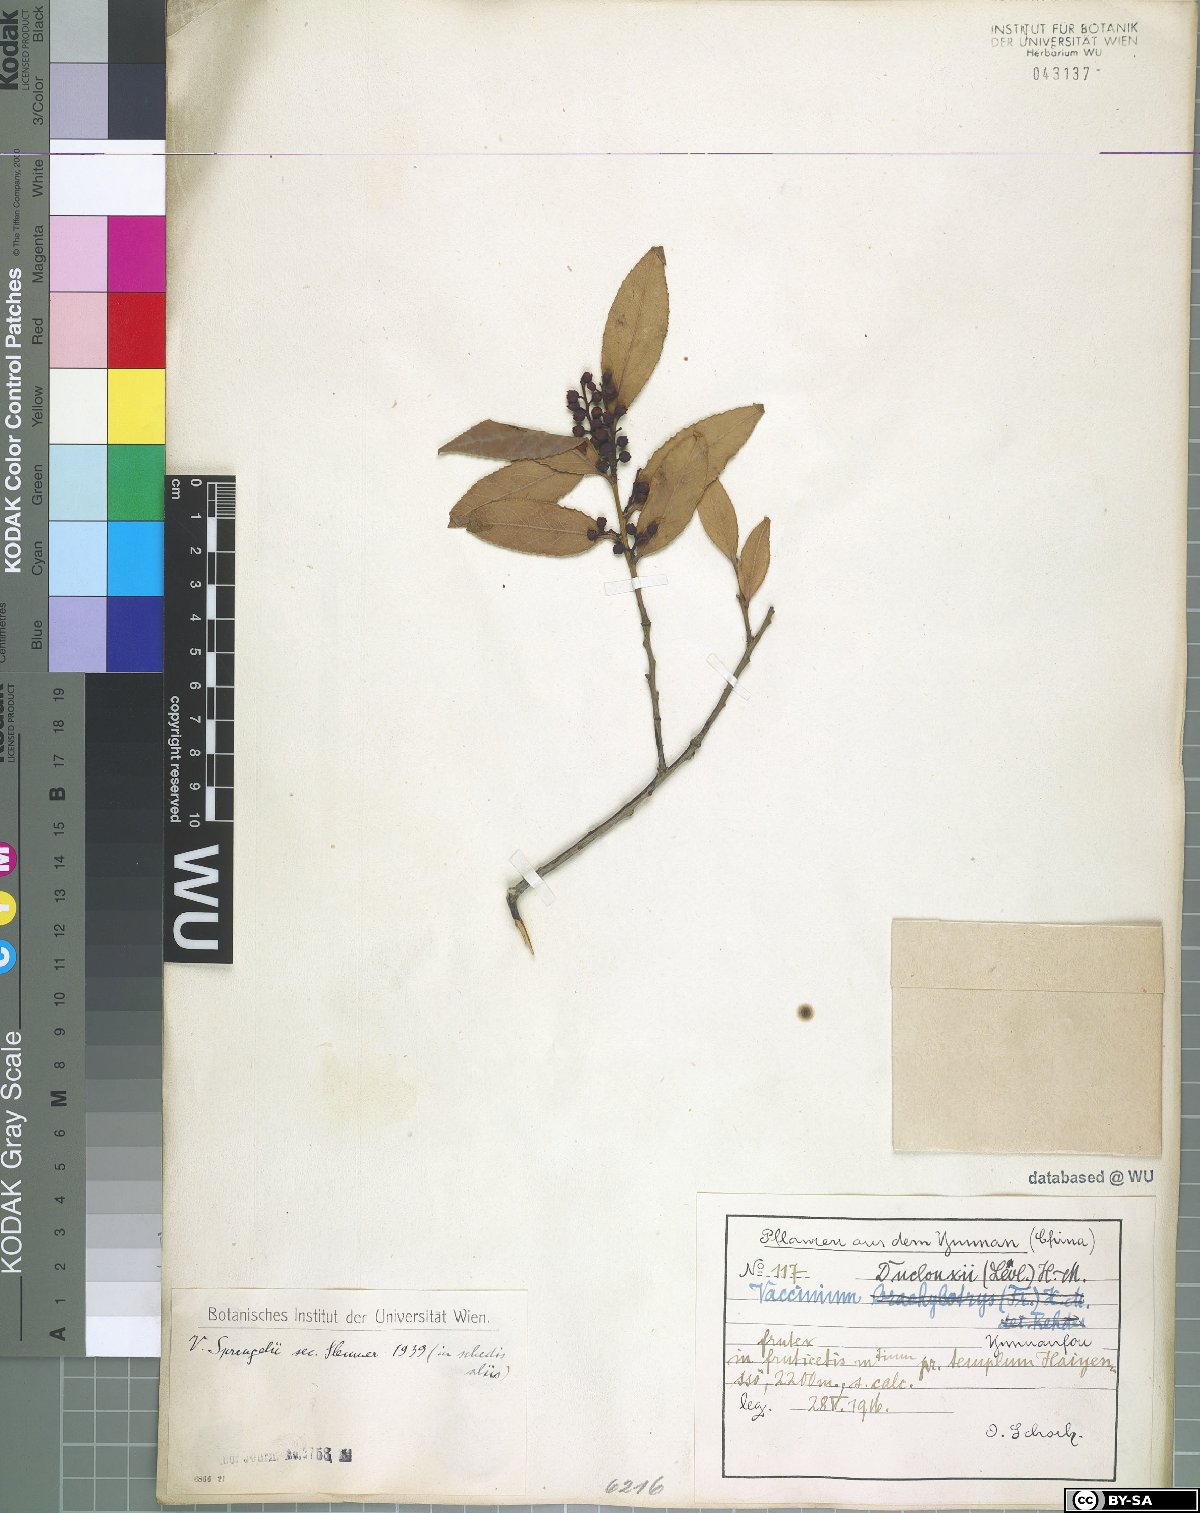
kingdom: Plantae
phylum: Tracheophyta
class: Magnoliopsida
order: Ericales
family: Ericaceae
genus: Vaccinium
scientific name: Vaccinium sprengelii
